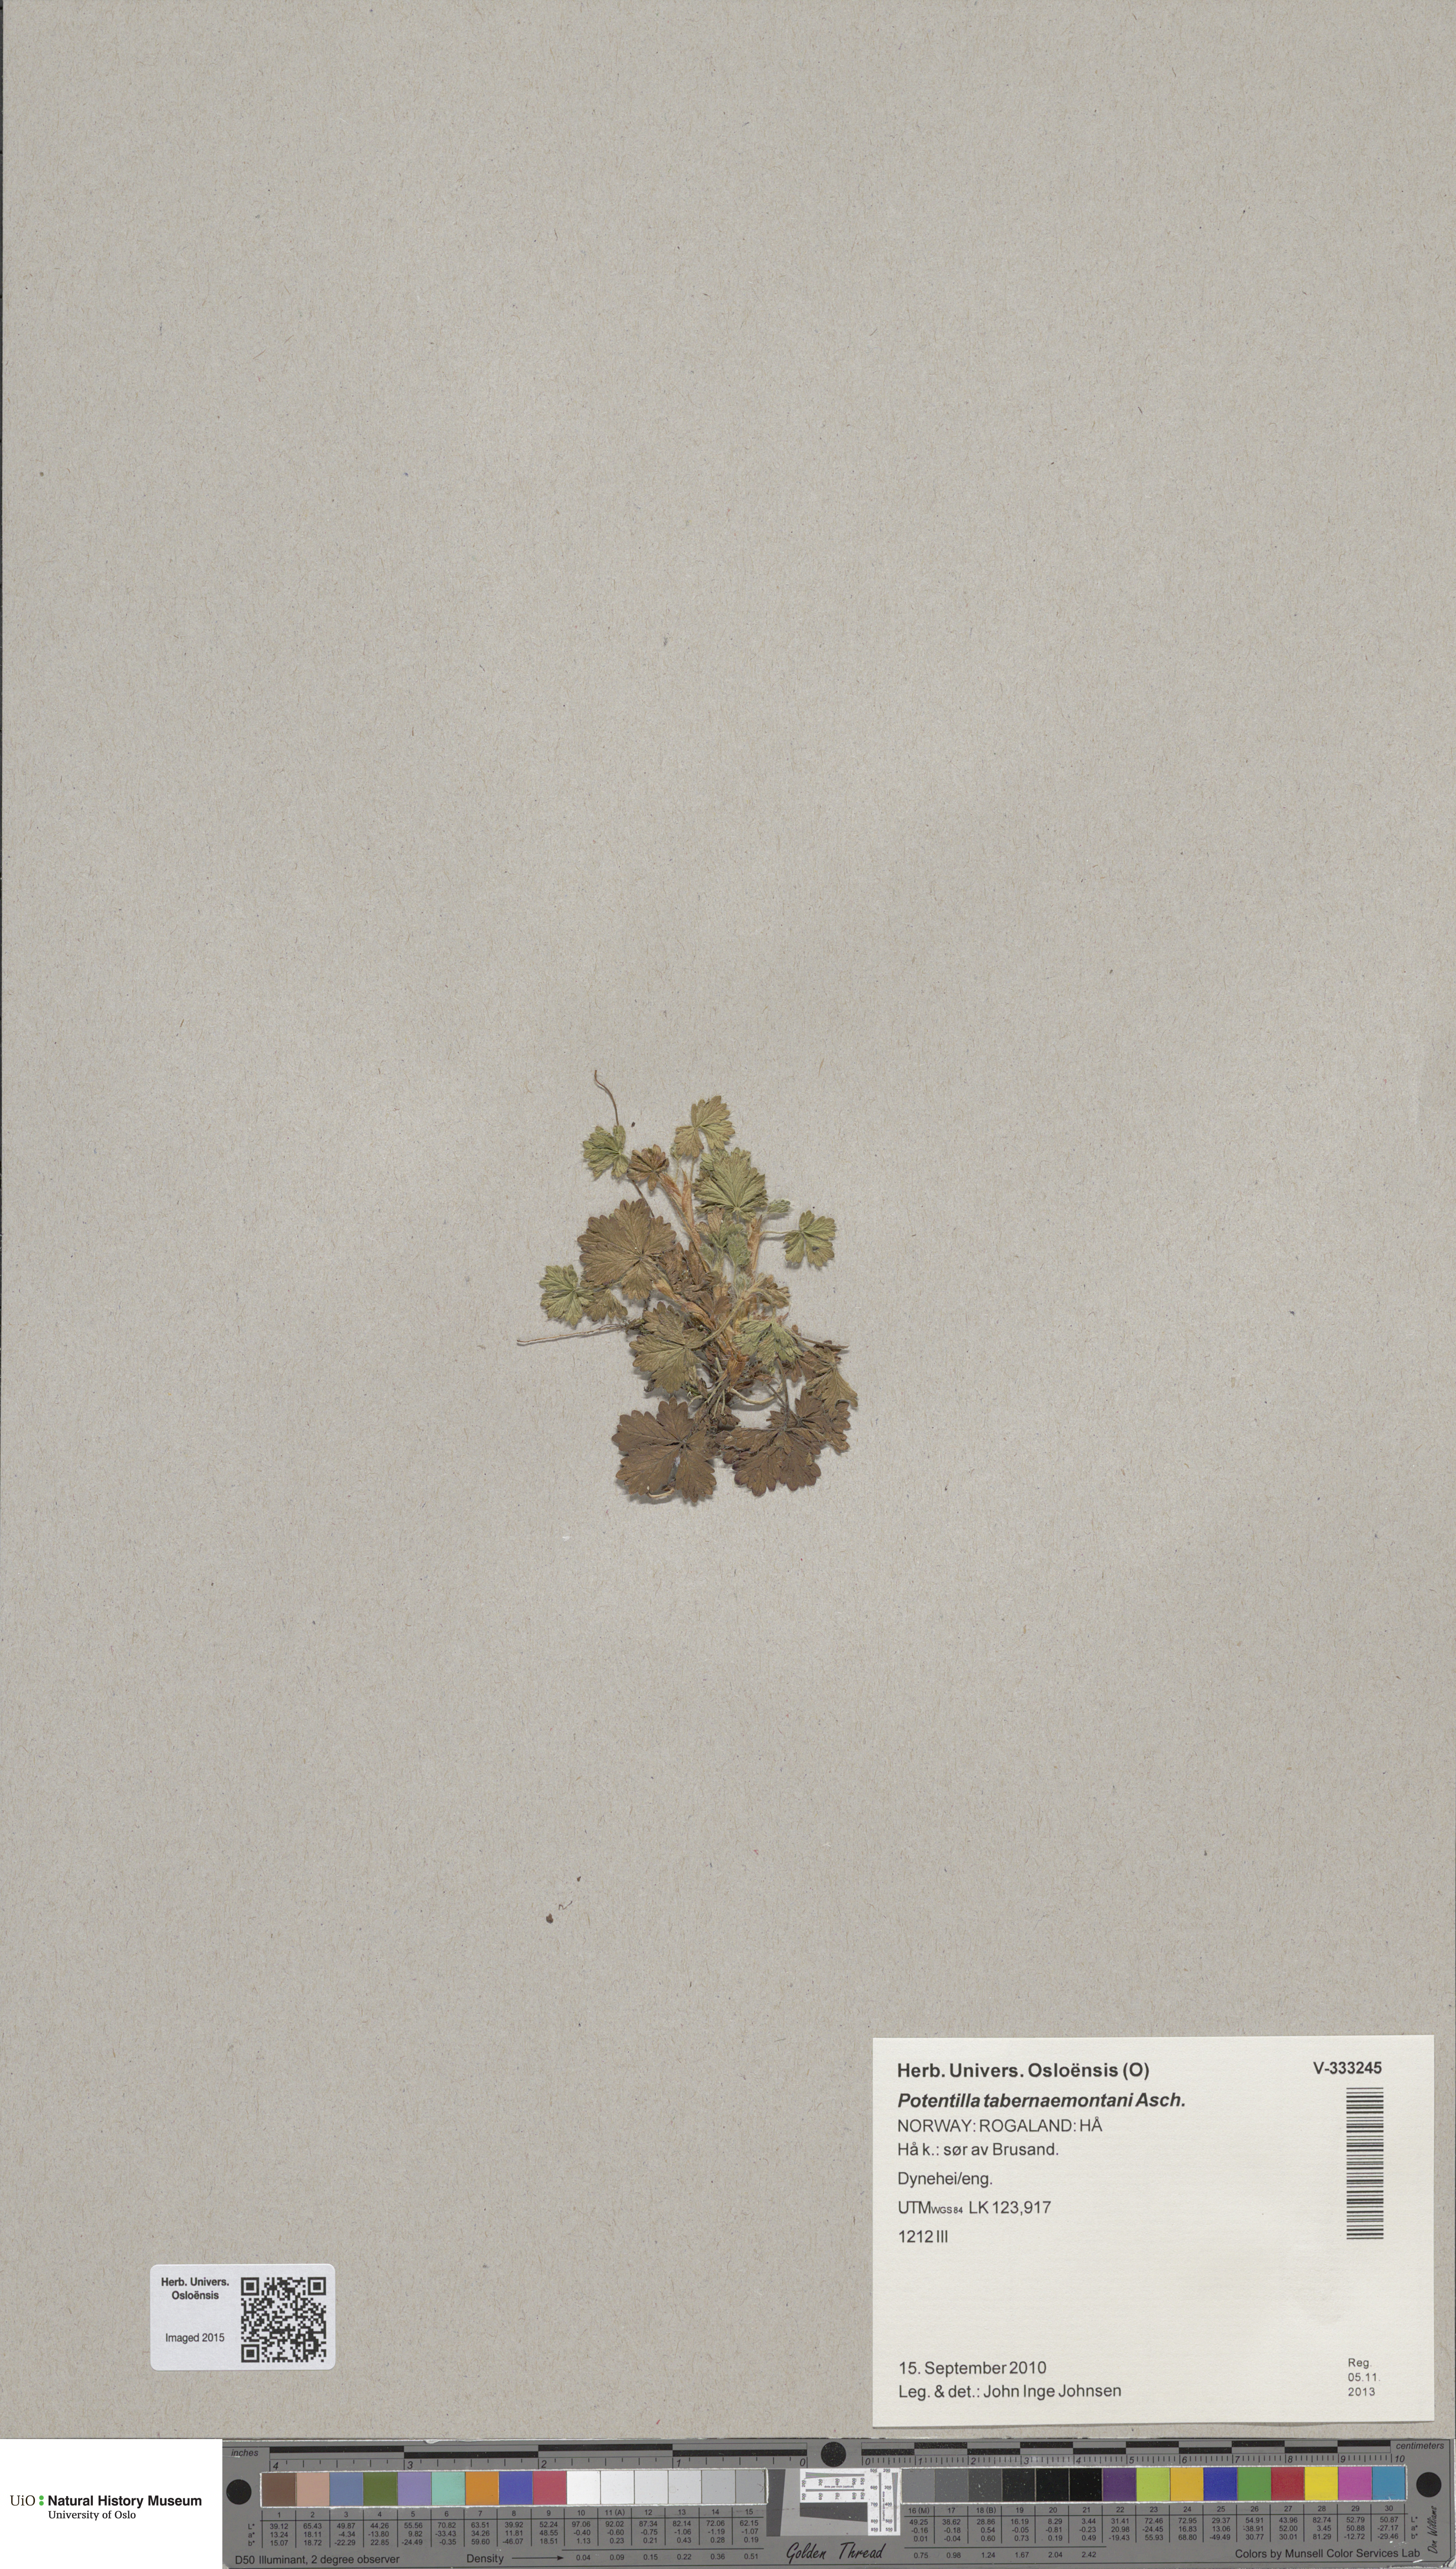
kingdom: Plantae
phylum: Tracheophyta
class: Magnoliopsida
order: Rosales
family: Rosaceae
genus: Potentilla
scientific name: Potentilla crantzii
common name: Alpine cinquefoil
